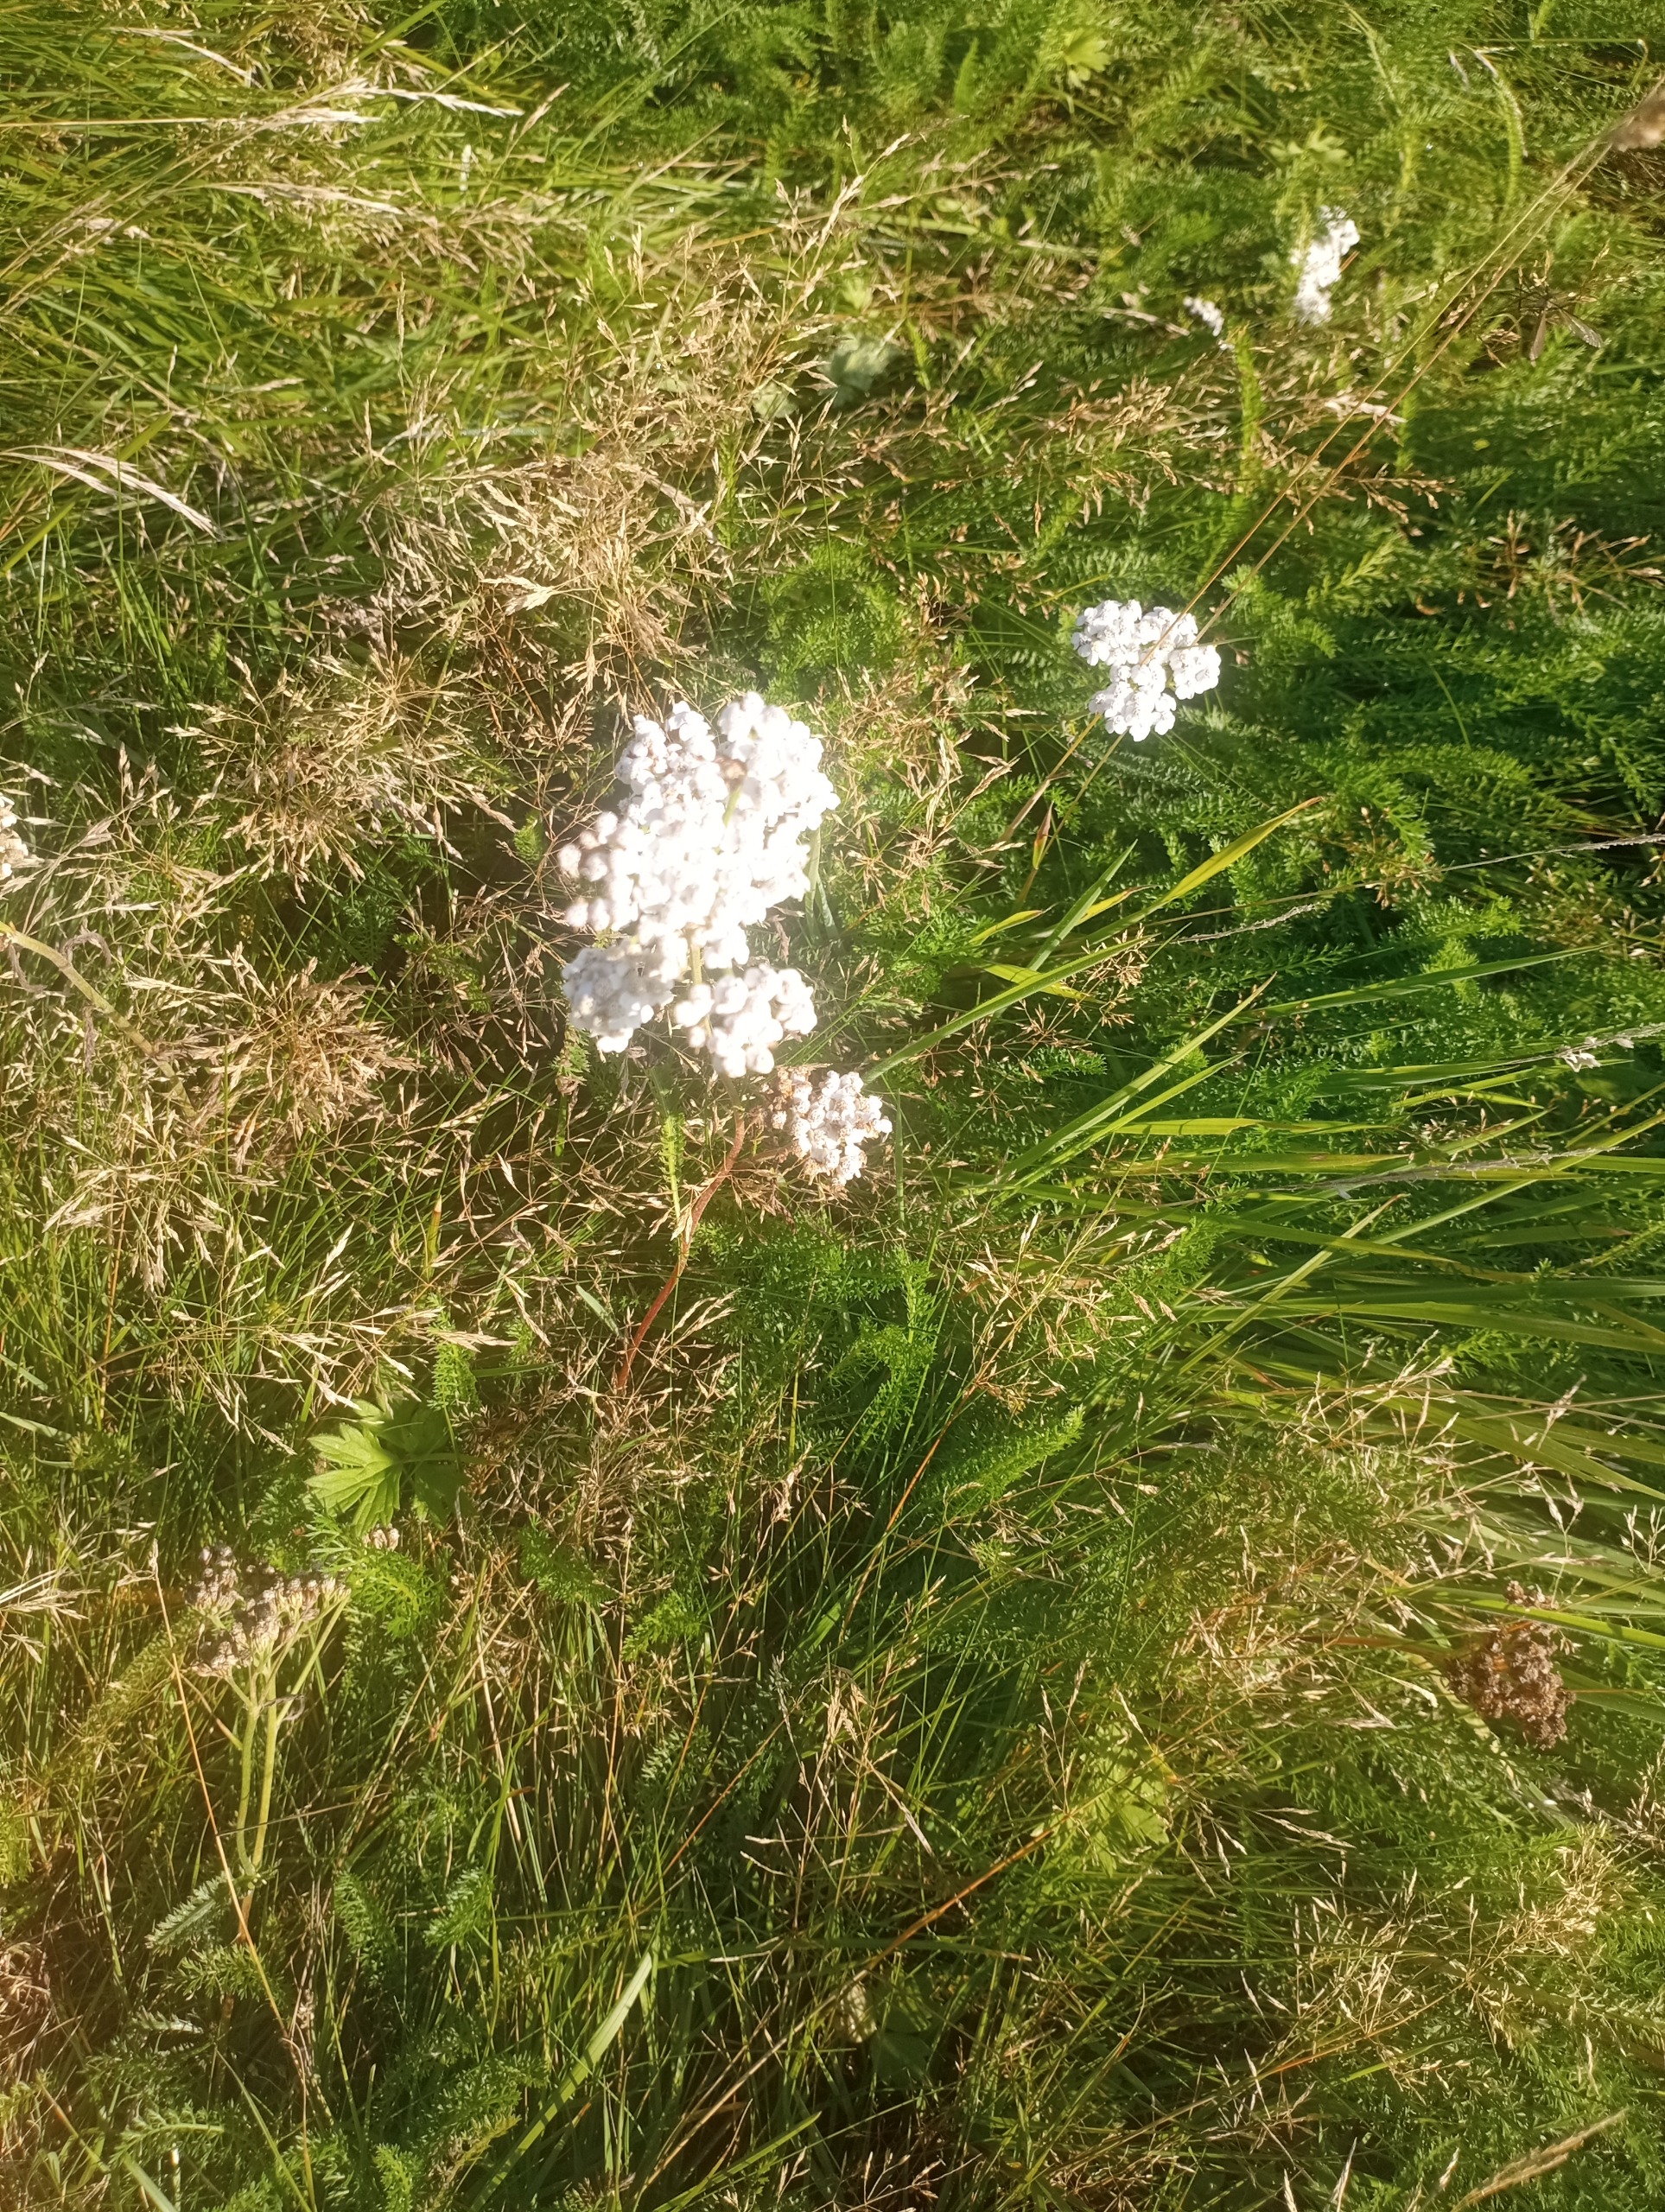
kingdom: Plantae
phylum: Tracheophyta
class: Magnoliopsida
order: Asterales
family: Asteraceae
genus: Achillea
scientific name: Achillea millefolium
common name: Almindelig røllike
